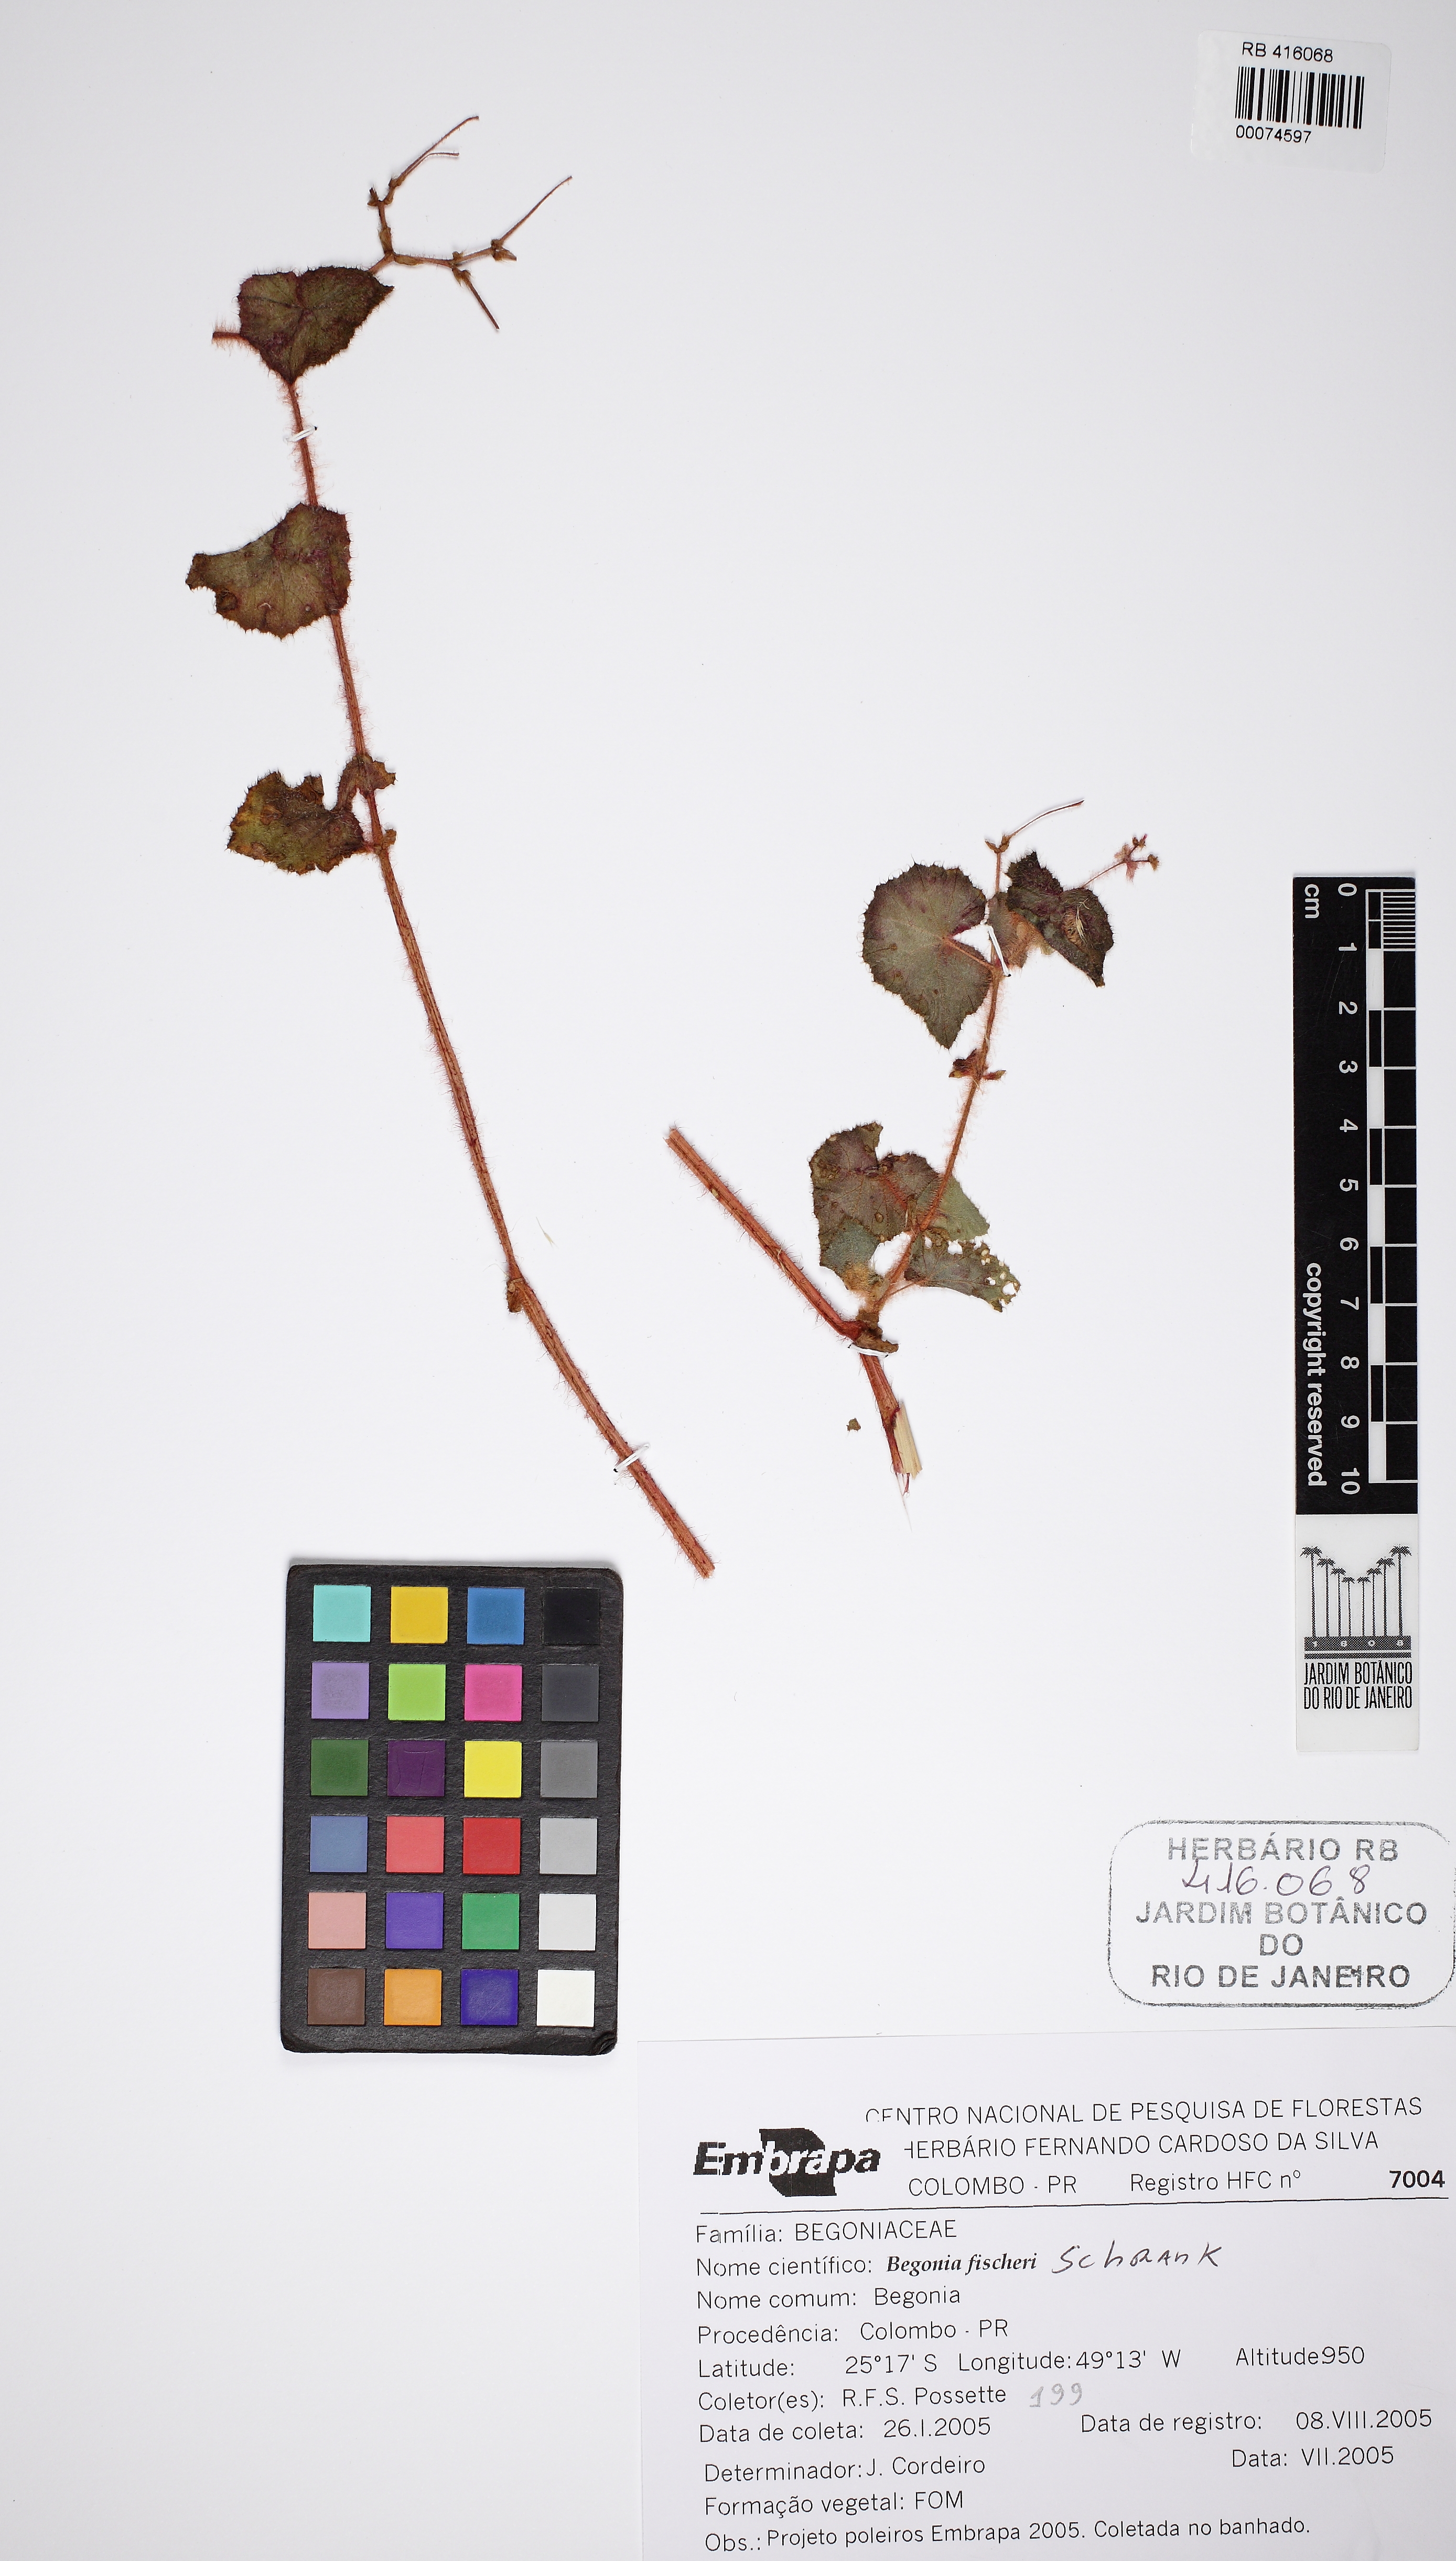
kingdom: Plantae
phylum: Tracheophyta
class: Magnoliopsida
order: Cucurbitales
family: Begoniaceae
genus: Begonia
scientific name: Begonia fischeri
